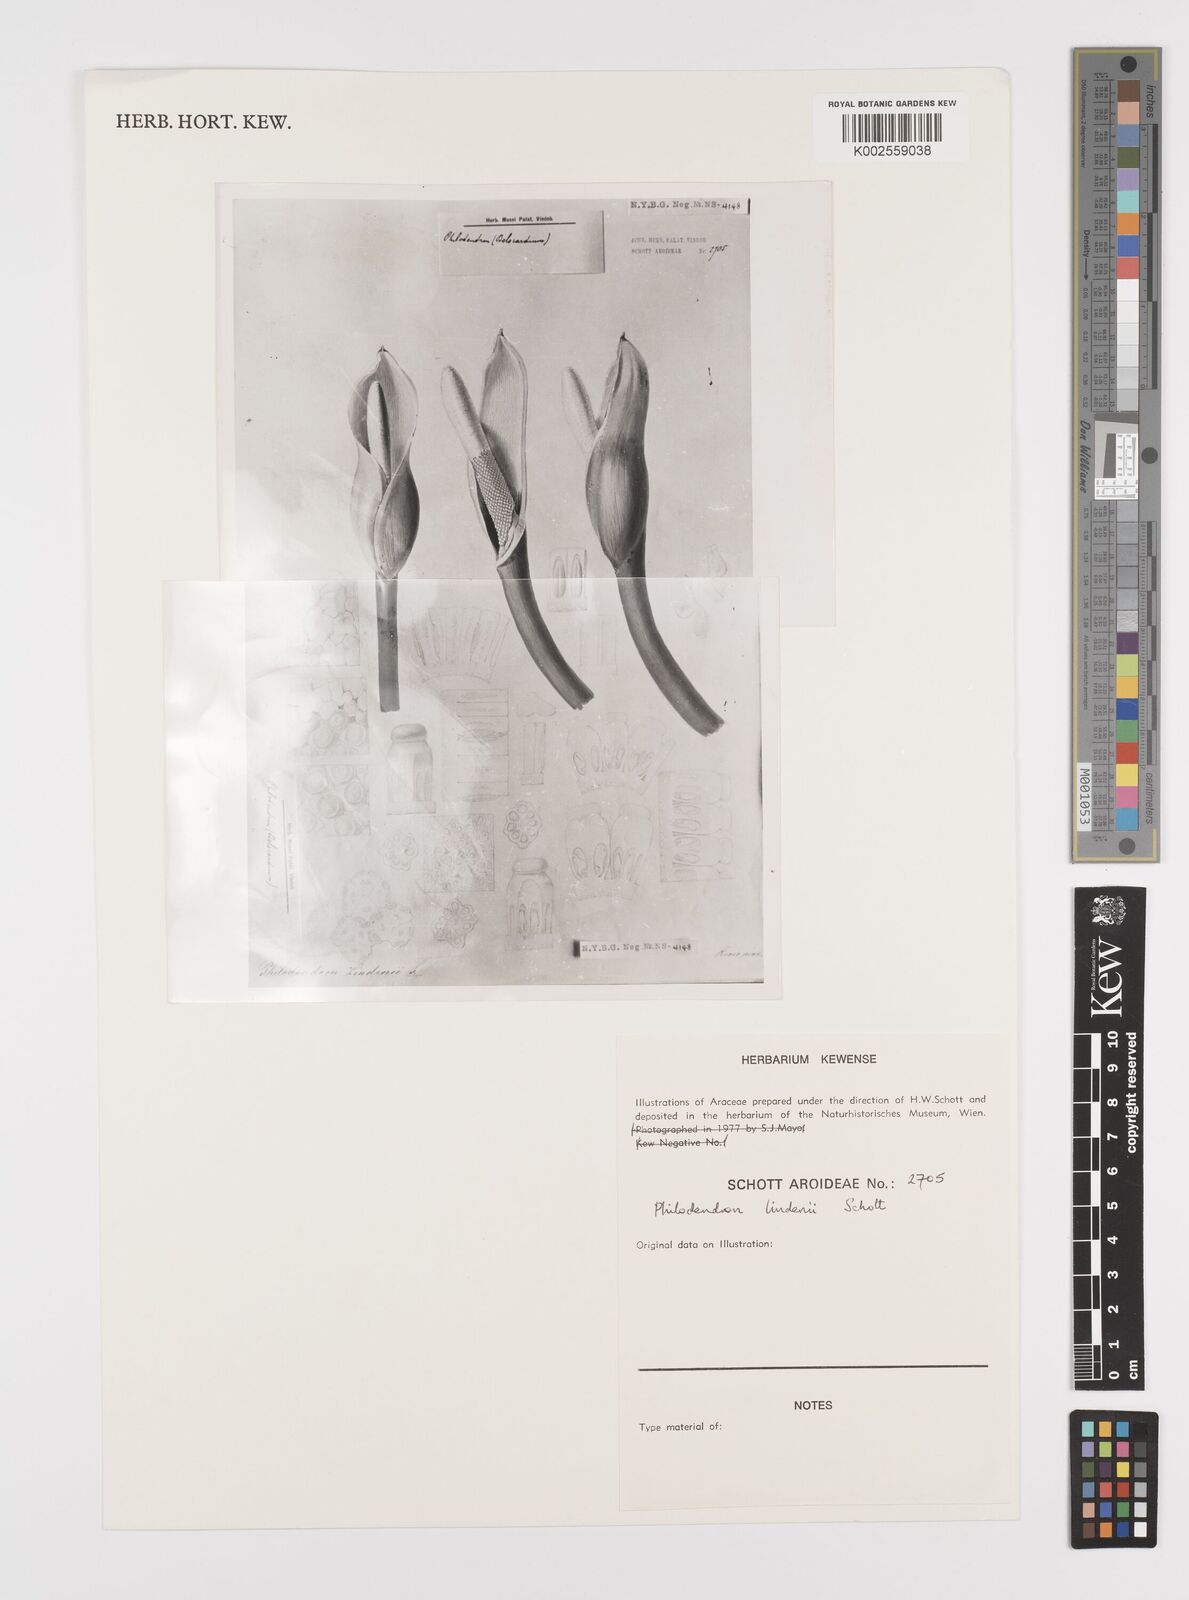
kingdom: Plantae
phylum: Tracheophyta
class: Liliopsida
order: Alismatales
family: Araceae
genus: Philodendron
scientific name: Philodendron lindenii
